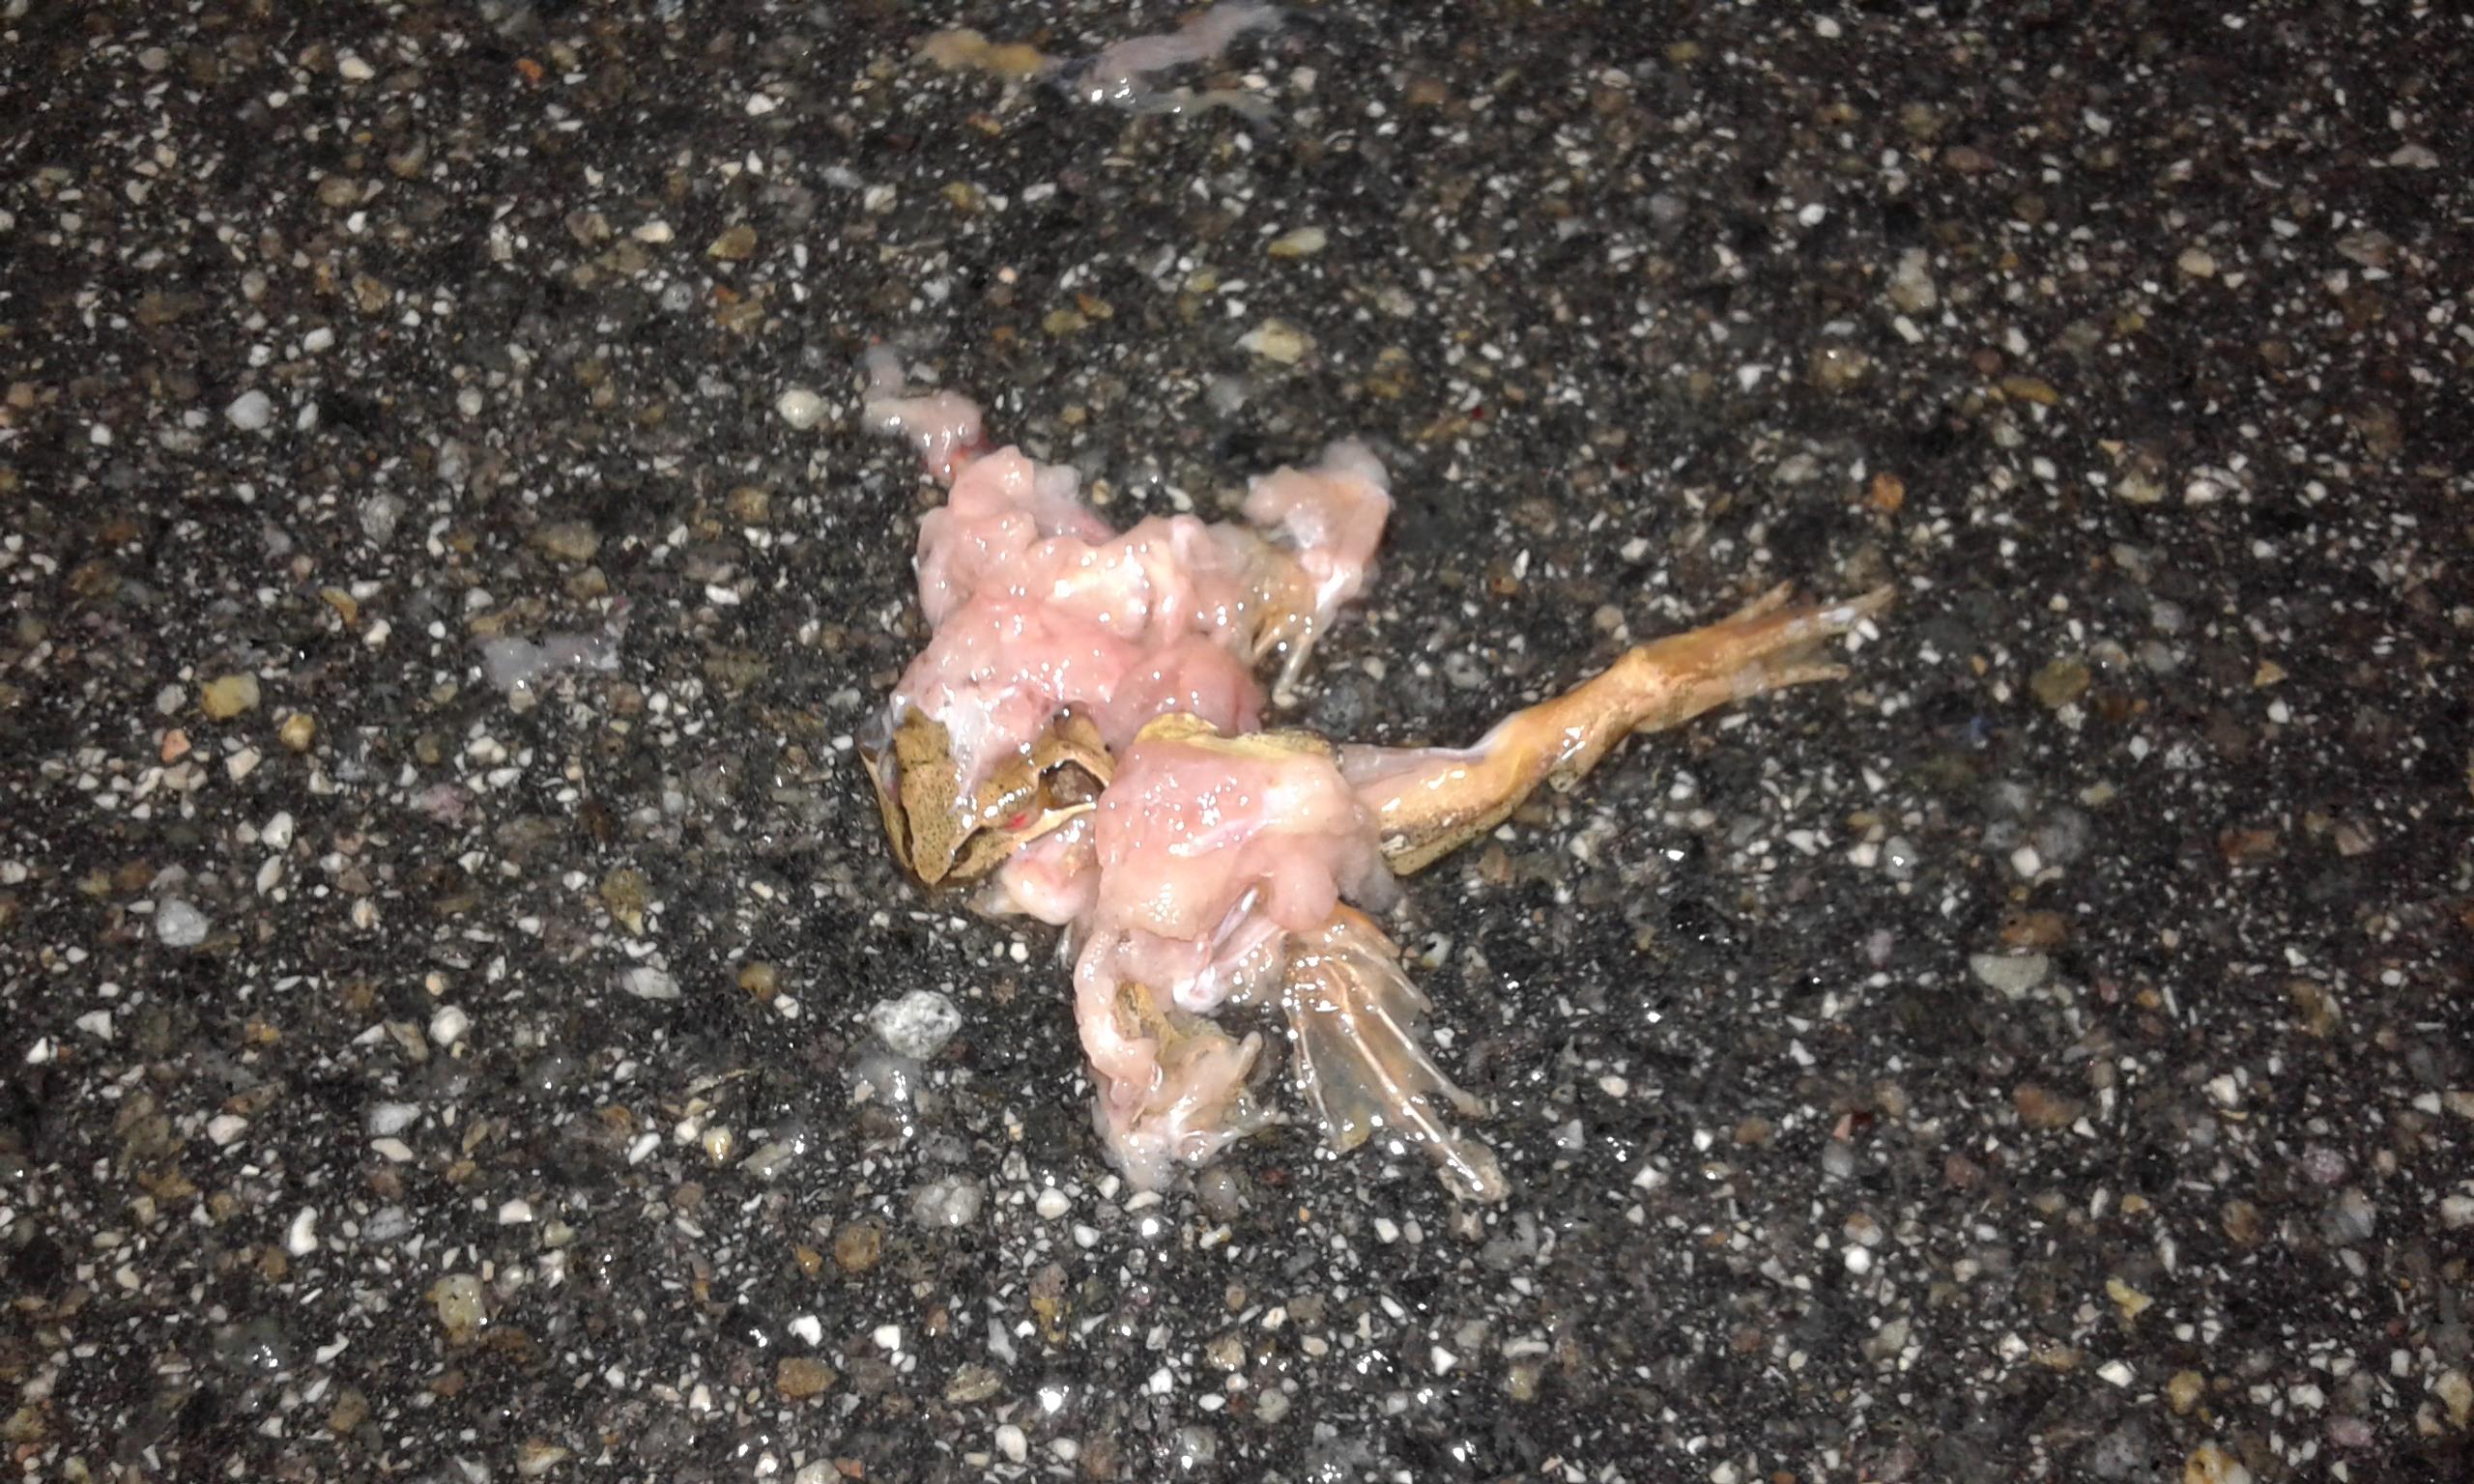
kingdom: Animalia
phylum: Chordata
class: Amphibia
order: Anura
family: Ranidae
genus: Rana
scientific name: Rana dalmatina
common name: Agile frog
